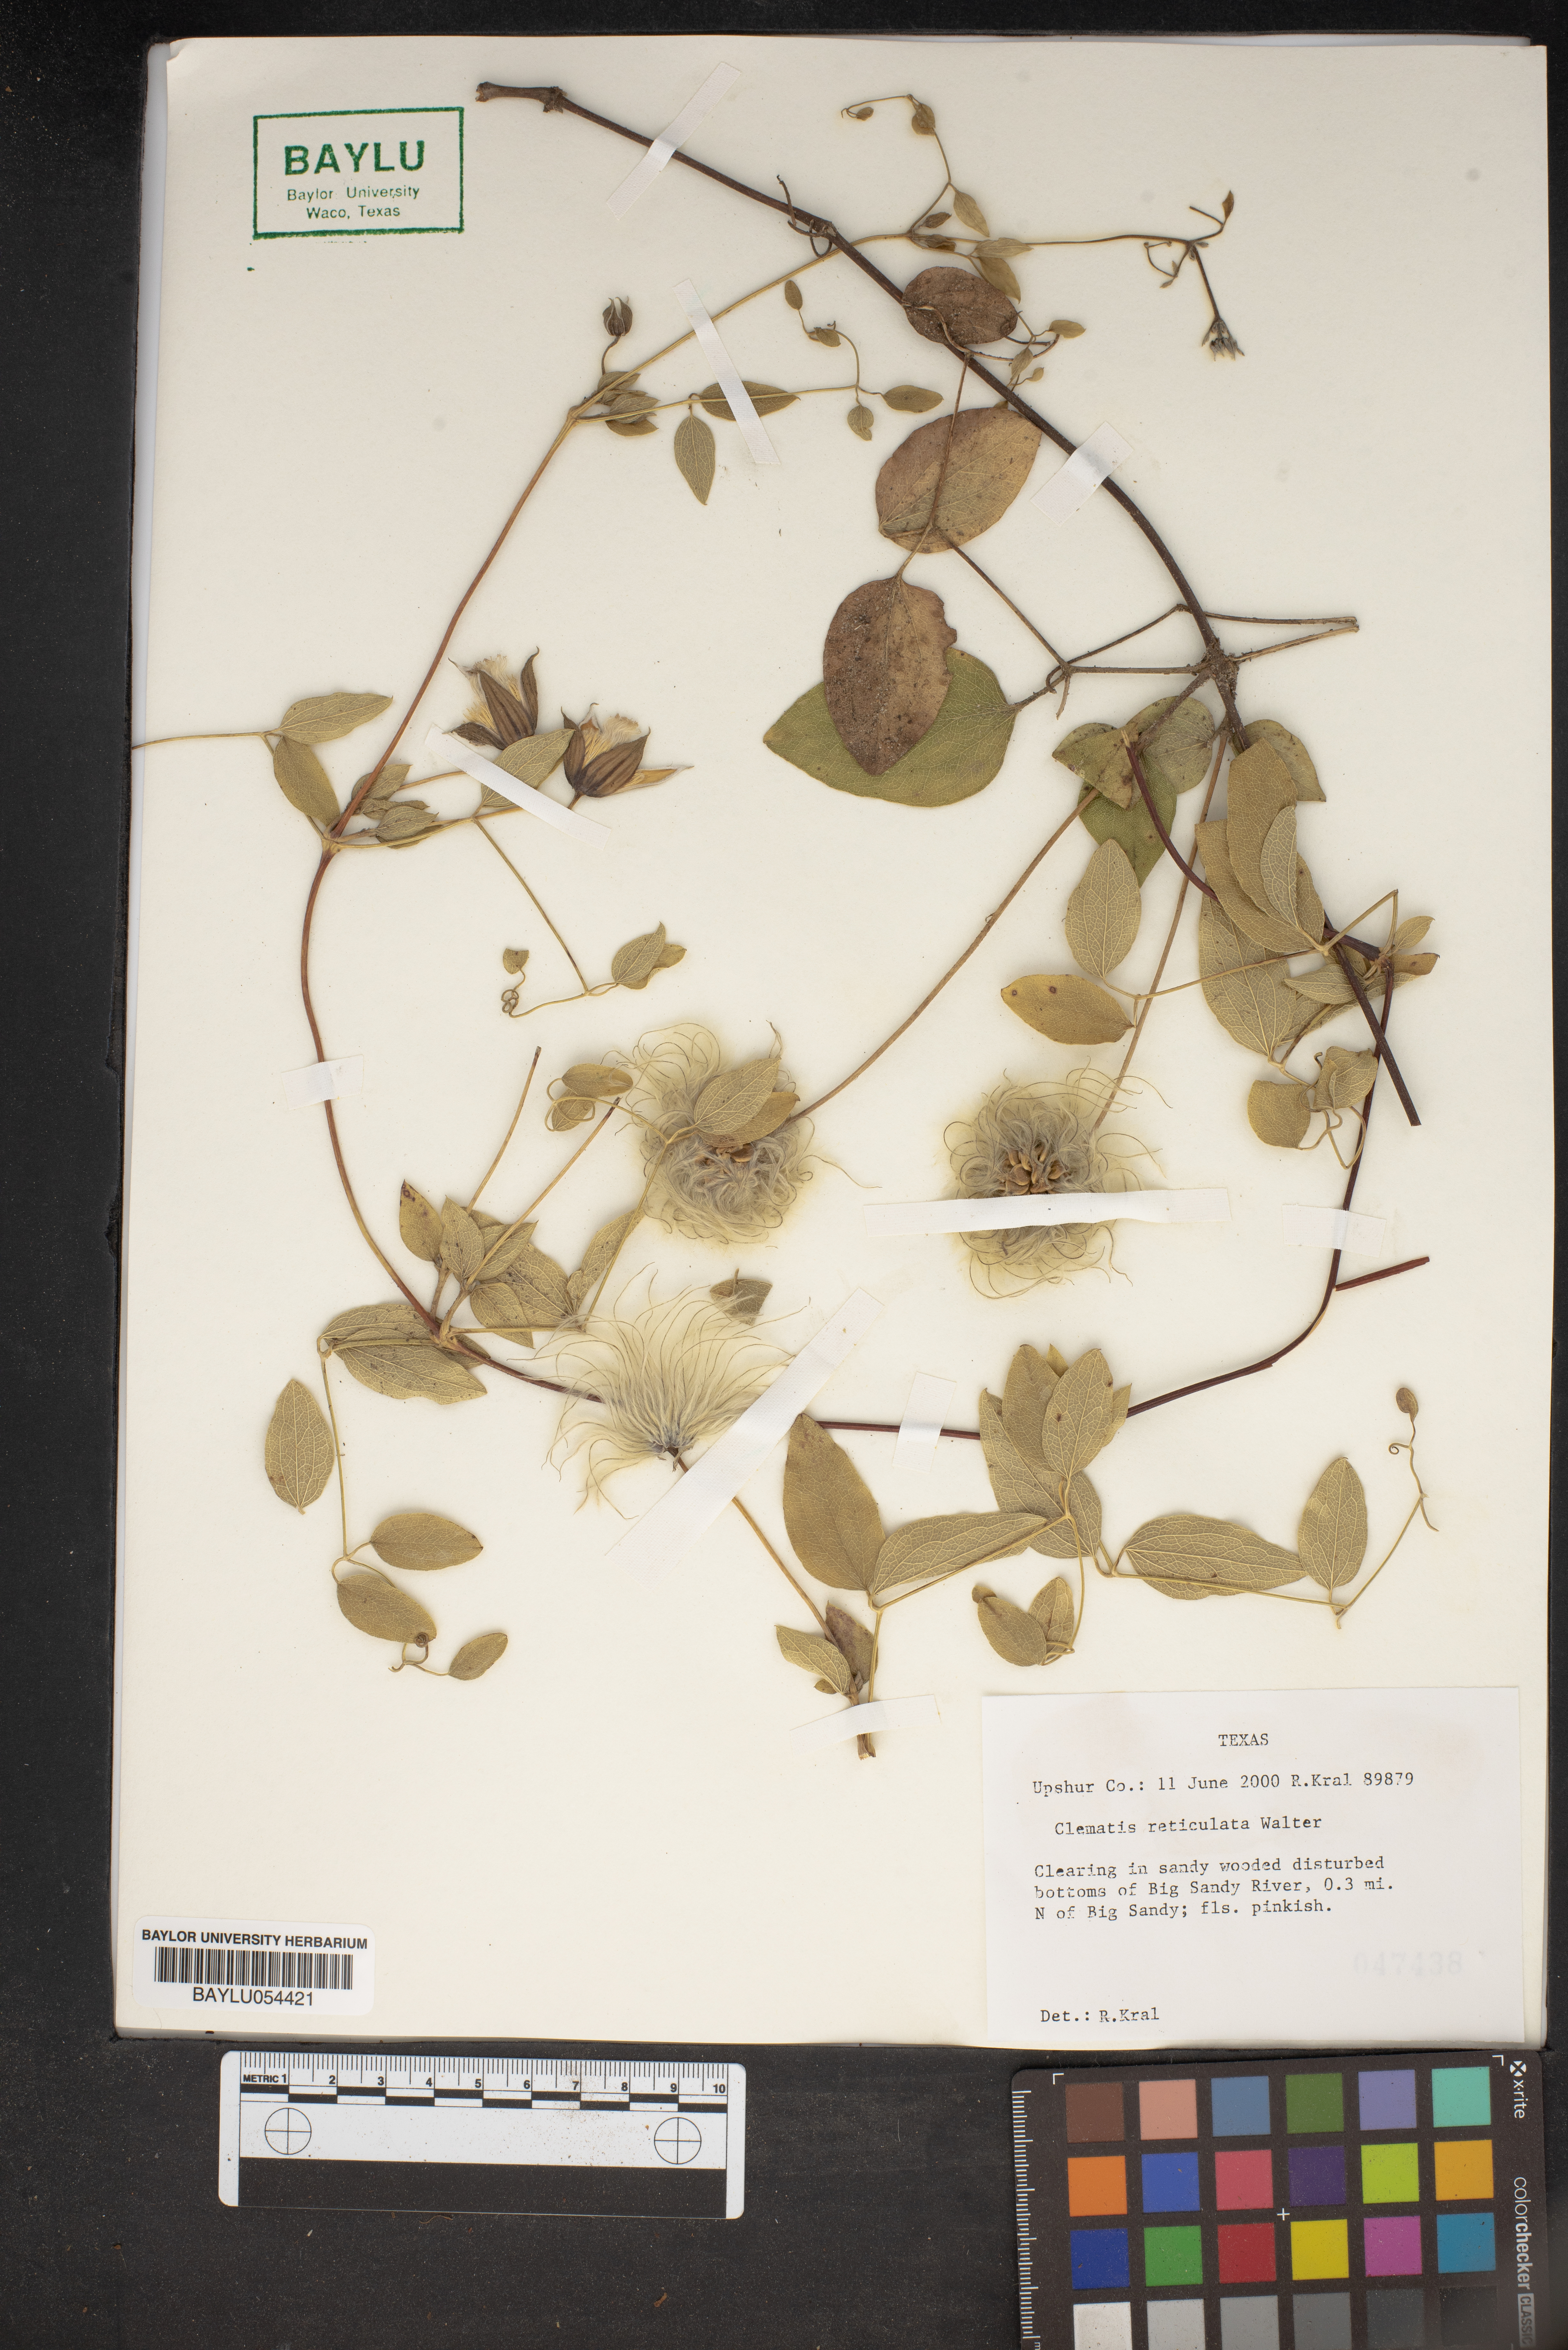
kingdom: Plantae
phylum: Tracheophyta
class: Magnoliopsida
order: Ranunculales
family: Ranunculaceae
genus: Clematis
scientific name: Clematis reticulata
